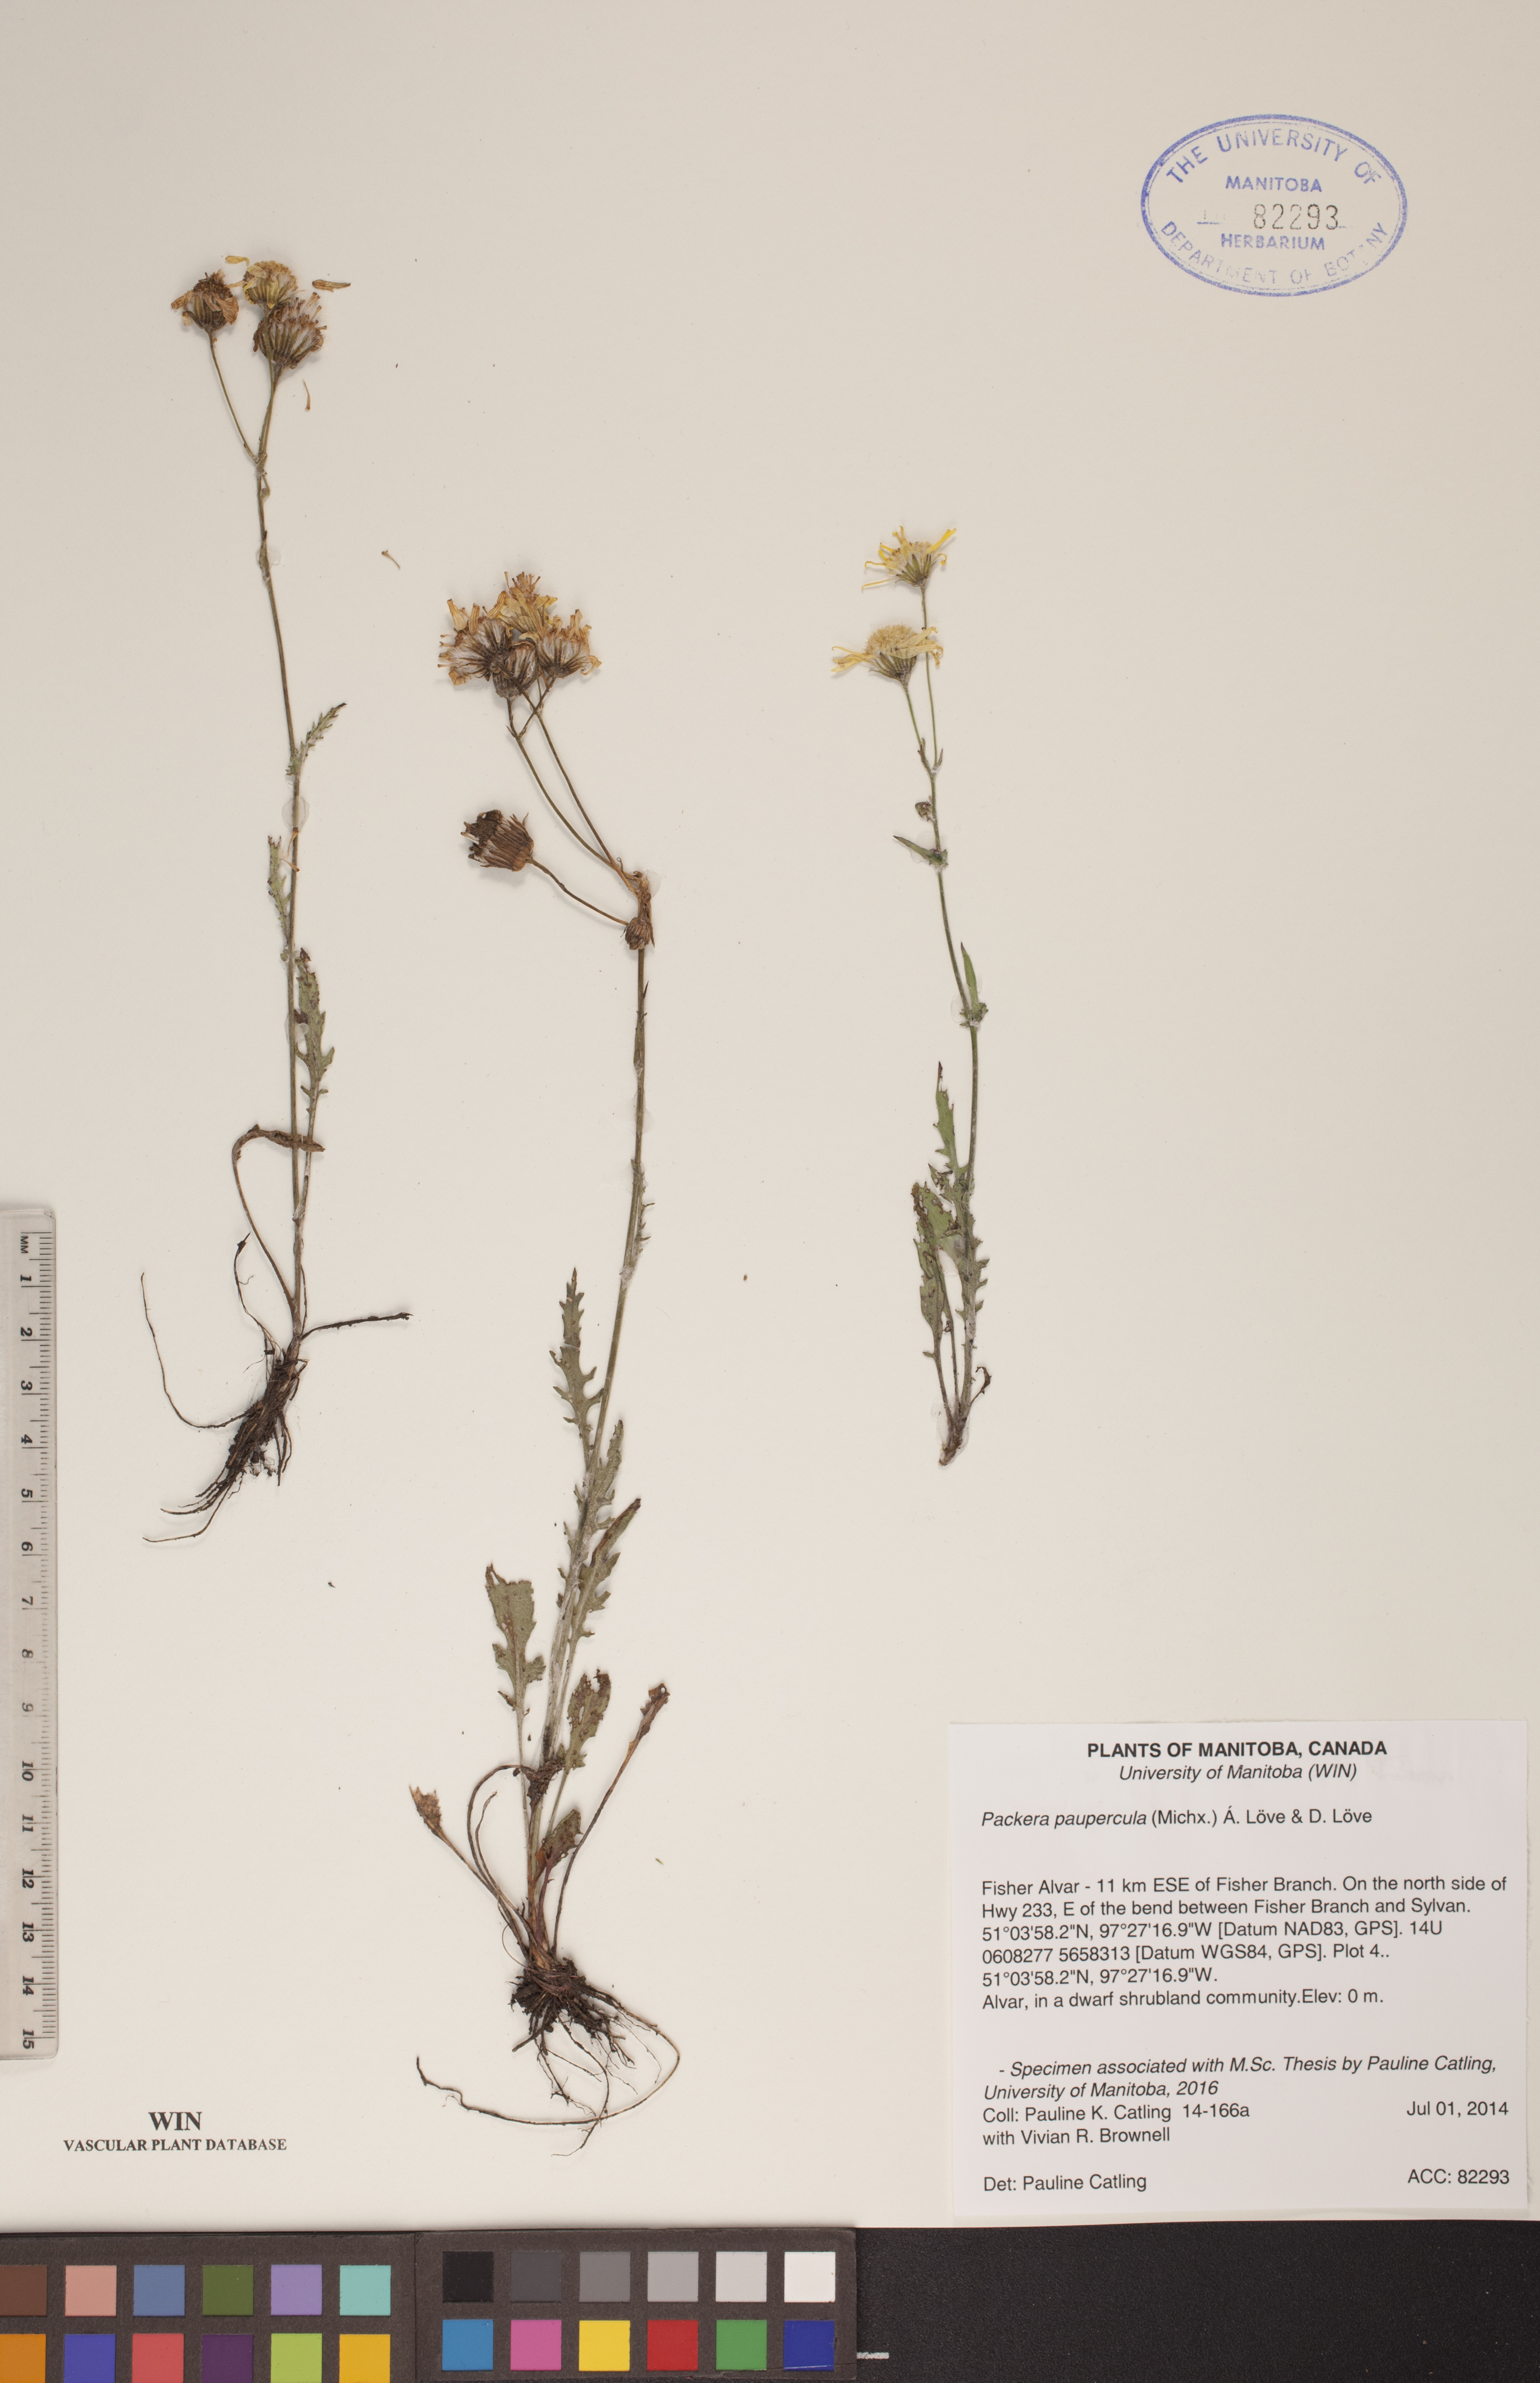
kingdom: Plantae
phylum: Tracheophyta
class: Magnoliopsida
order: Asterales
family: Asteraceae
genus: Packera
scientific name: Packera paupercula
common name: Balsam groundsel
